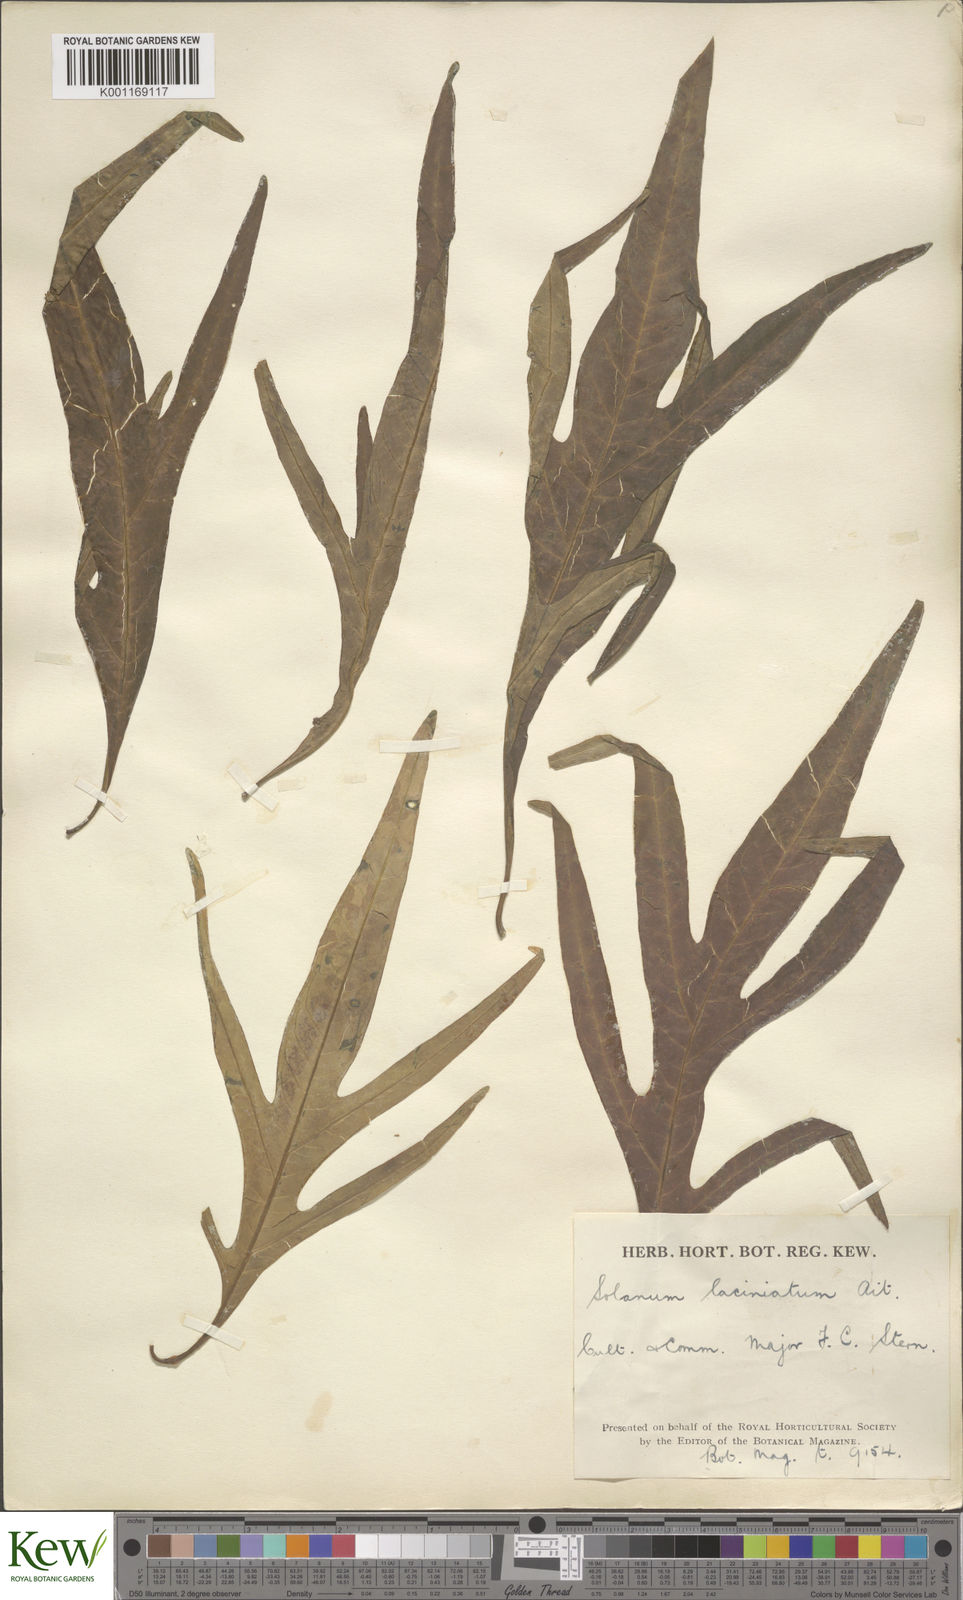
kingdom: Plantae
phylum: Tracheophyta
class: Magnoliopsida
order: Solanales
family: Solanaceae
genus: Solanum
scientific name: Solanum laciniatum
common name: Kangaroo-apple
